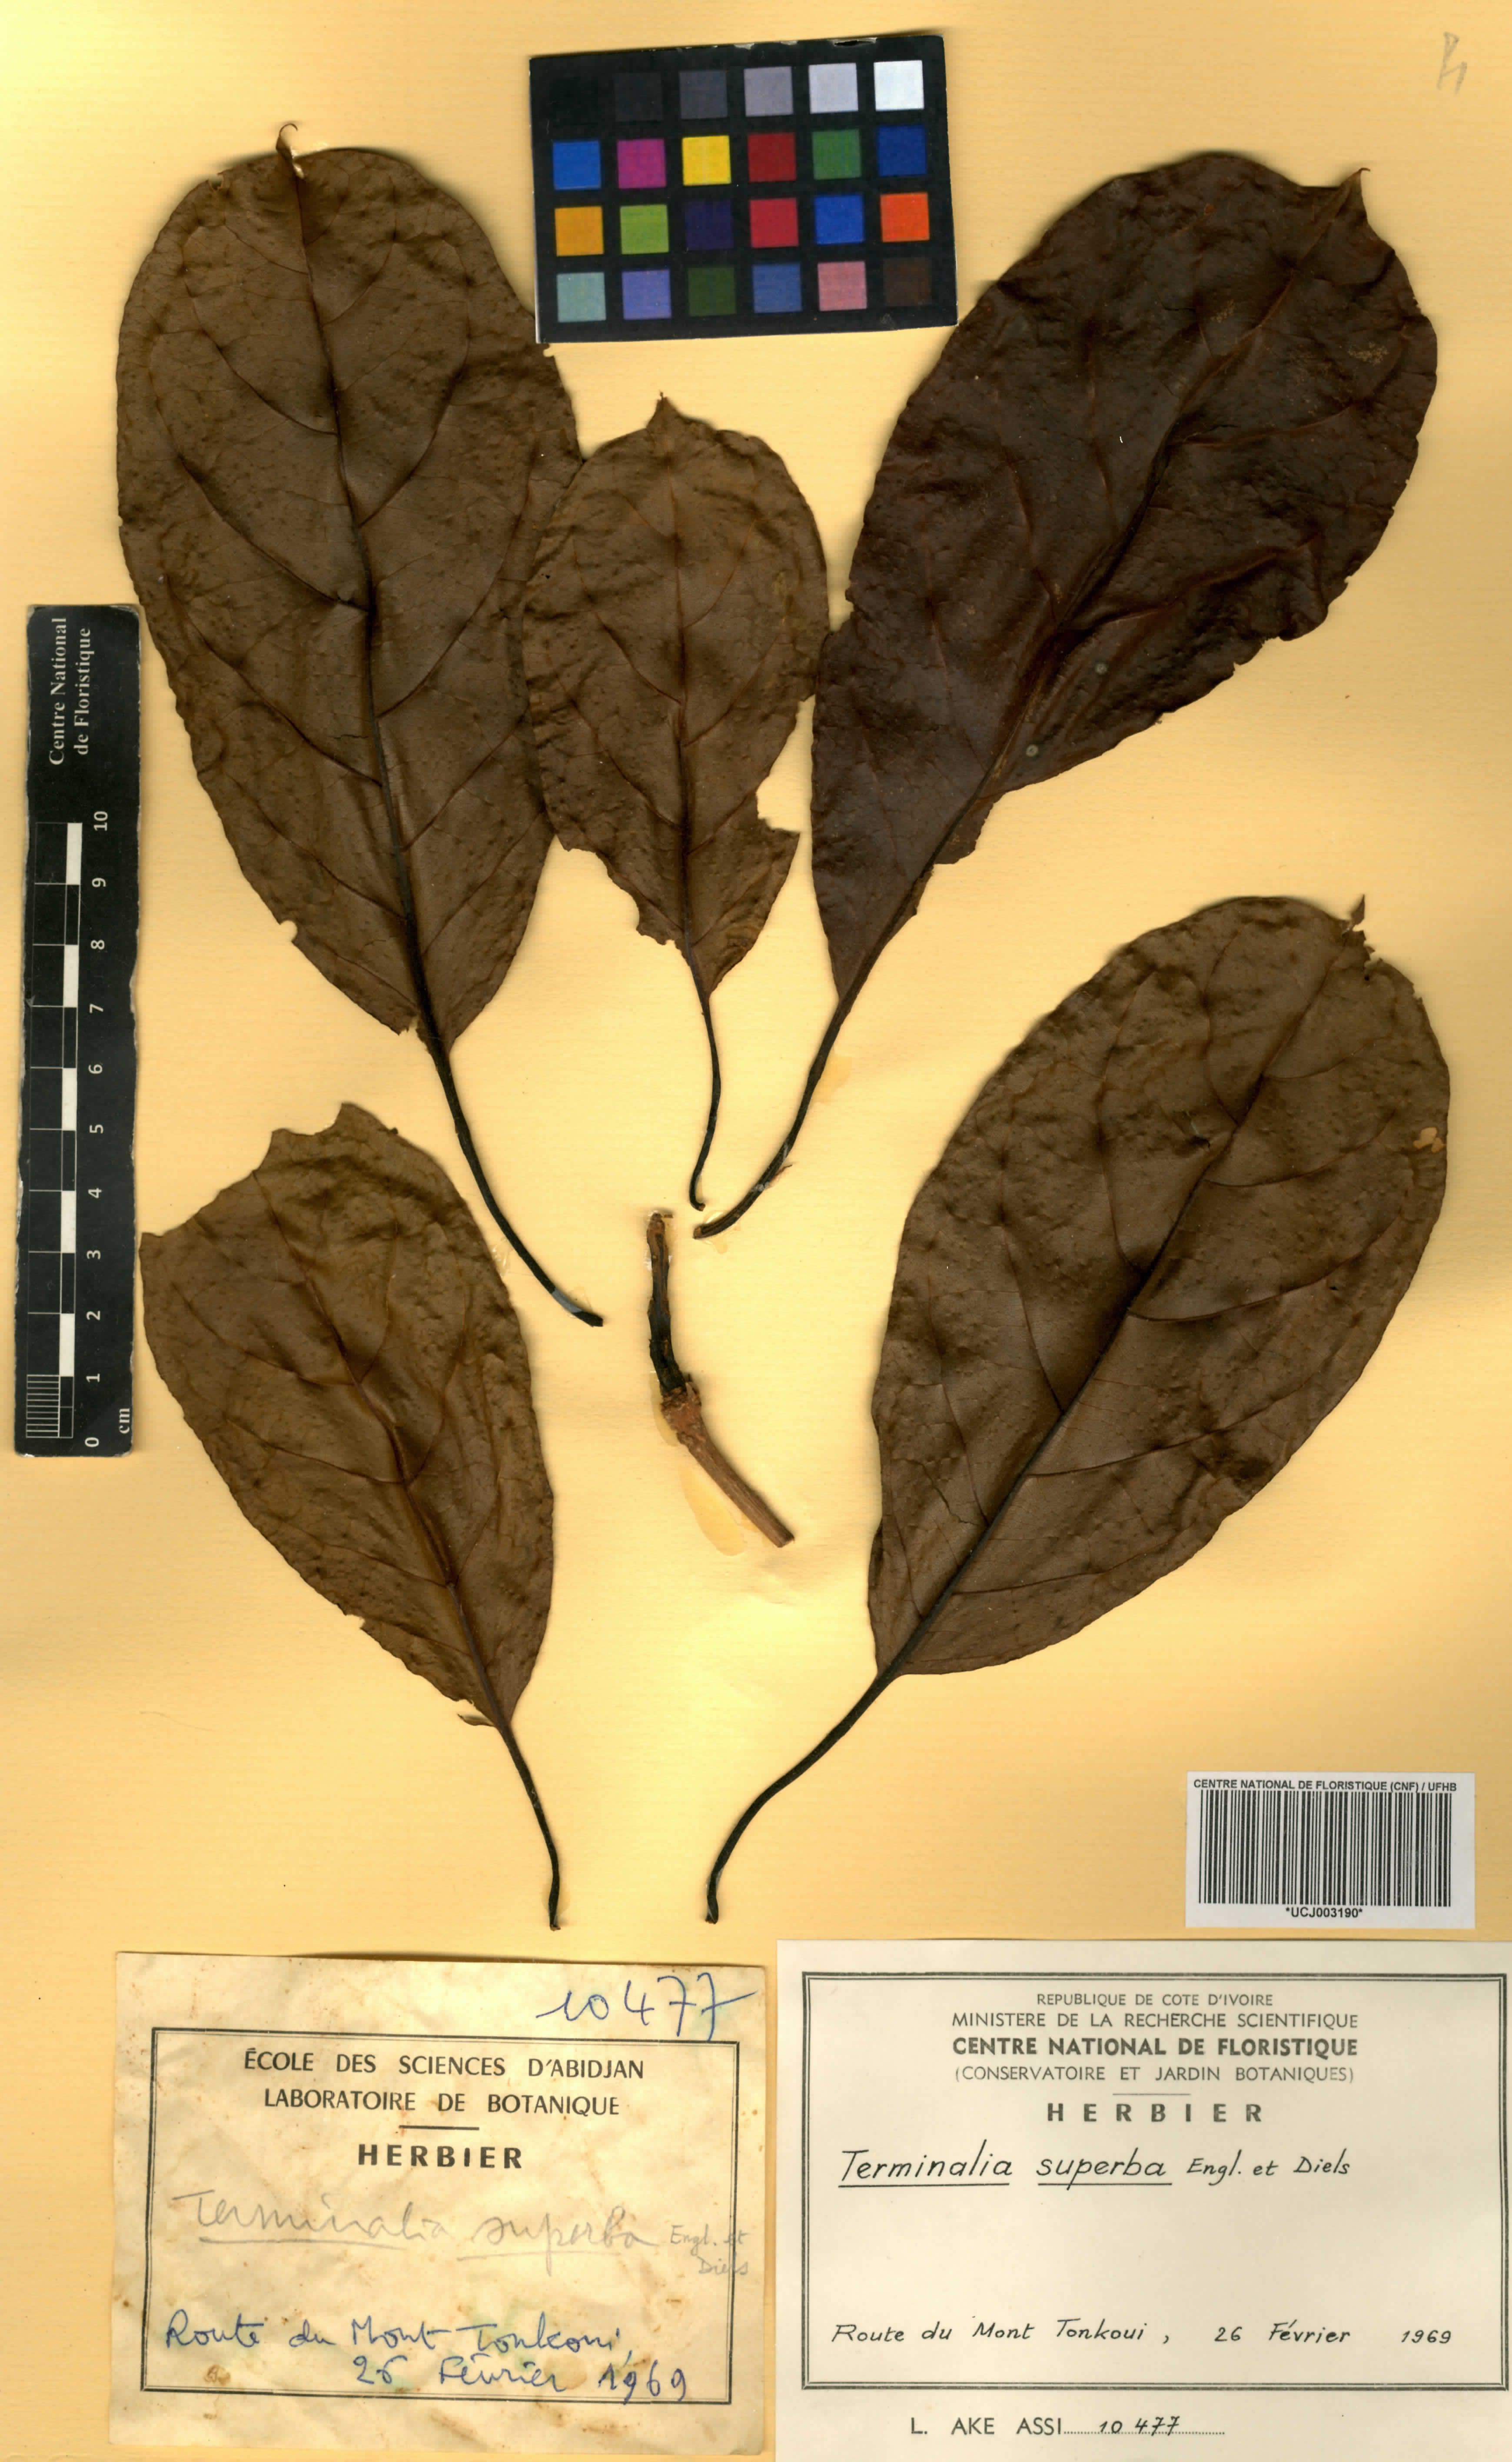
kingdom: Plantae
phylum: Tracheophyta
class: Magnoliopsida
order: Myrtales
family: Combretaceae
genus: Terminalia
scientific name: Terminalia superba
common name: White afara
